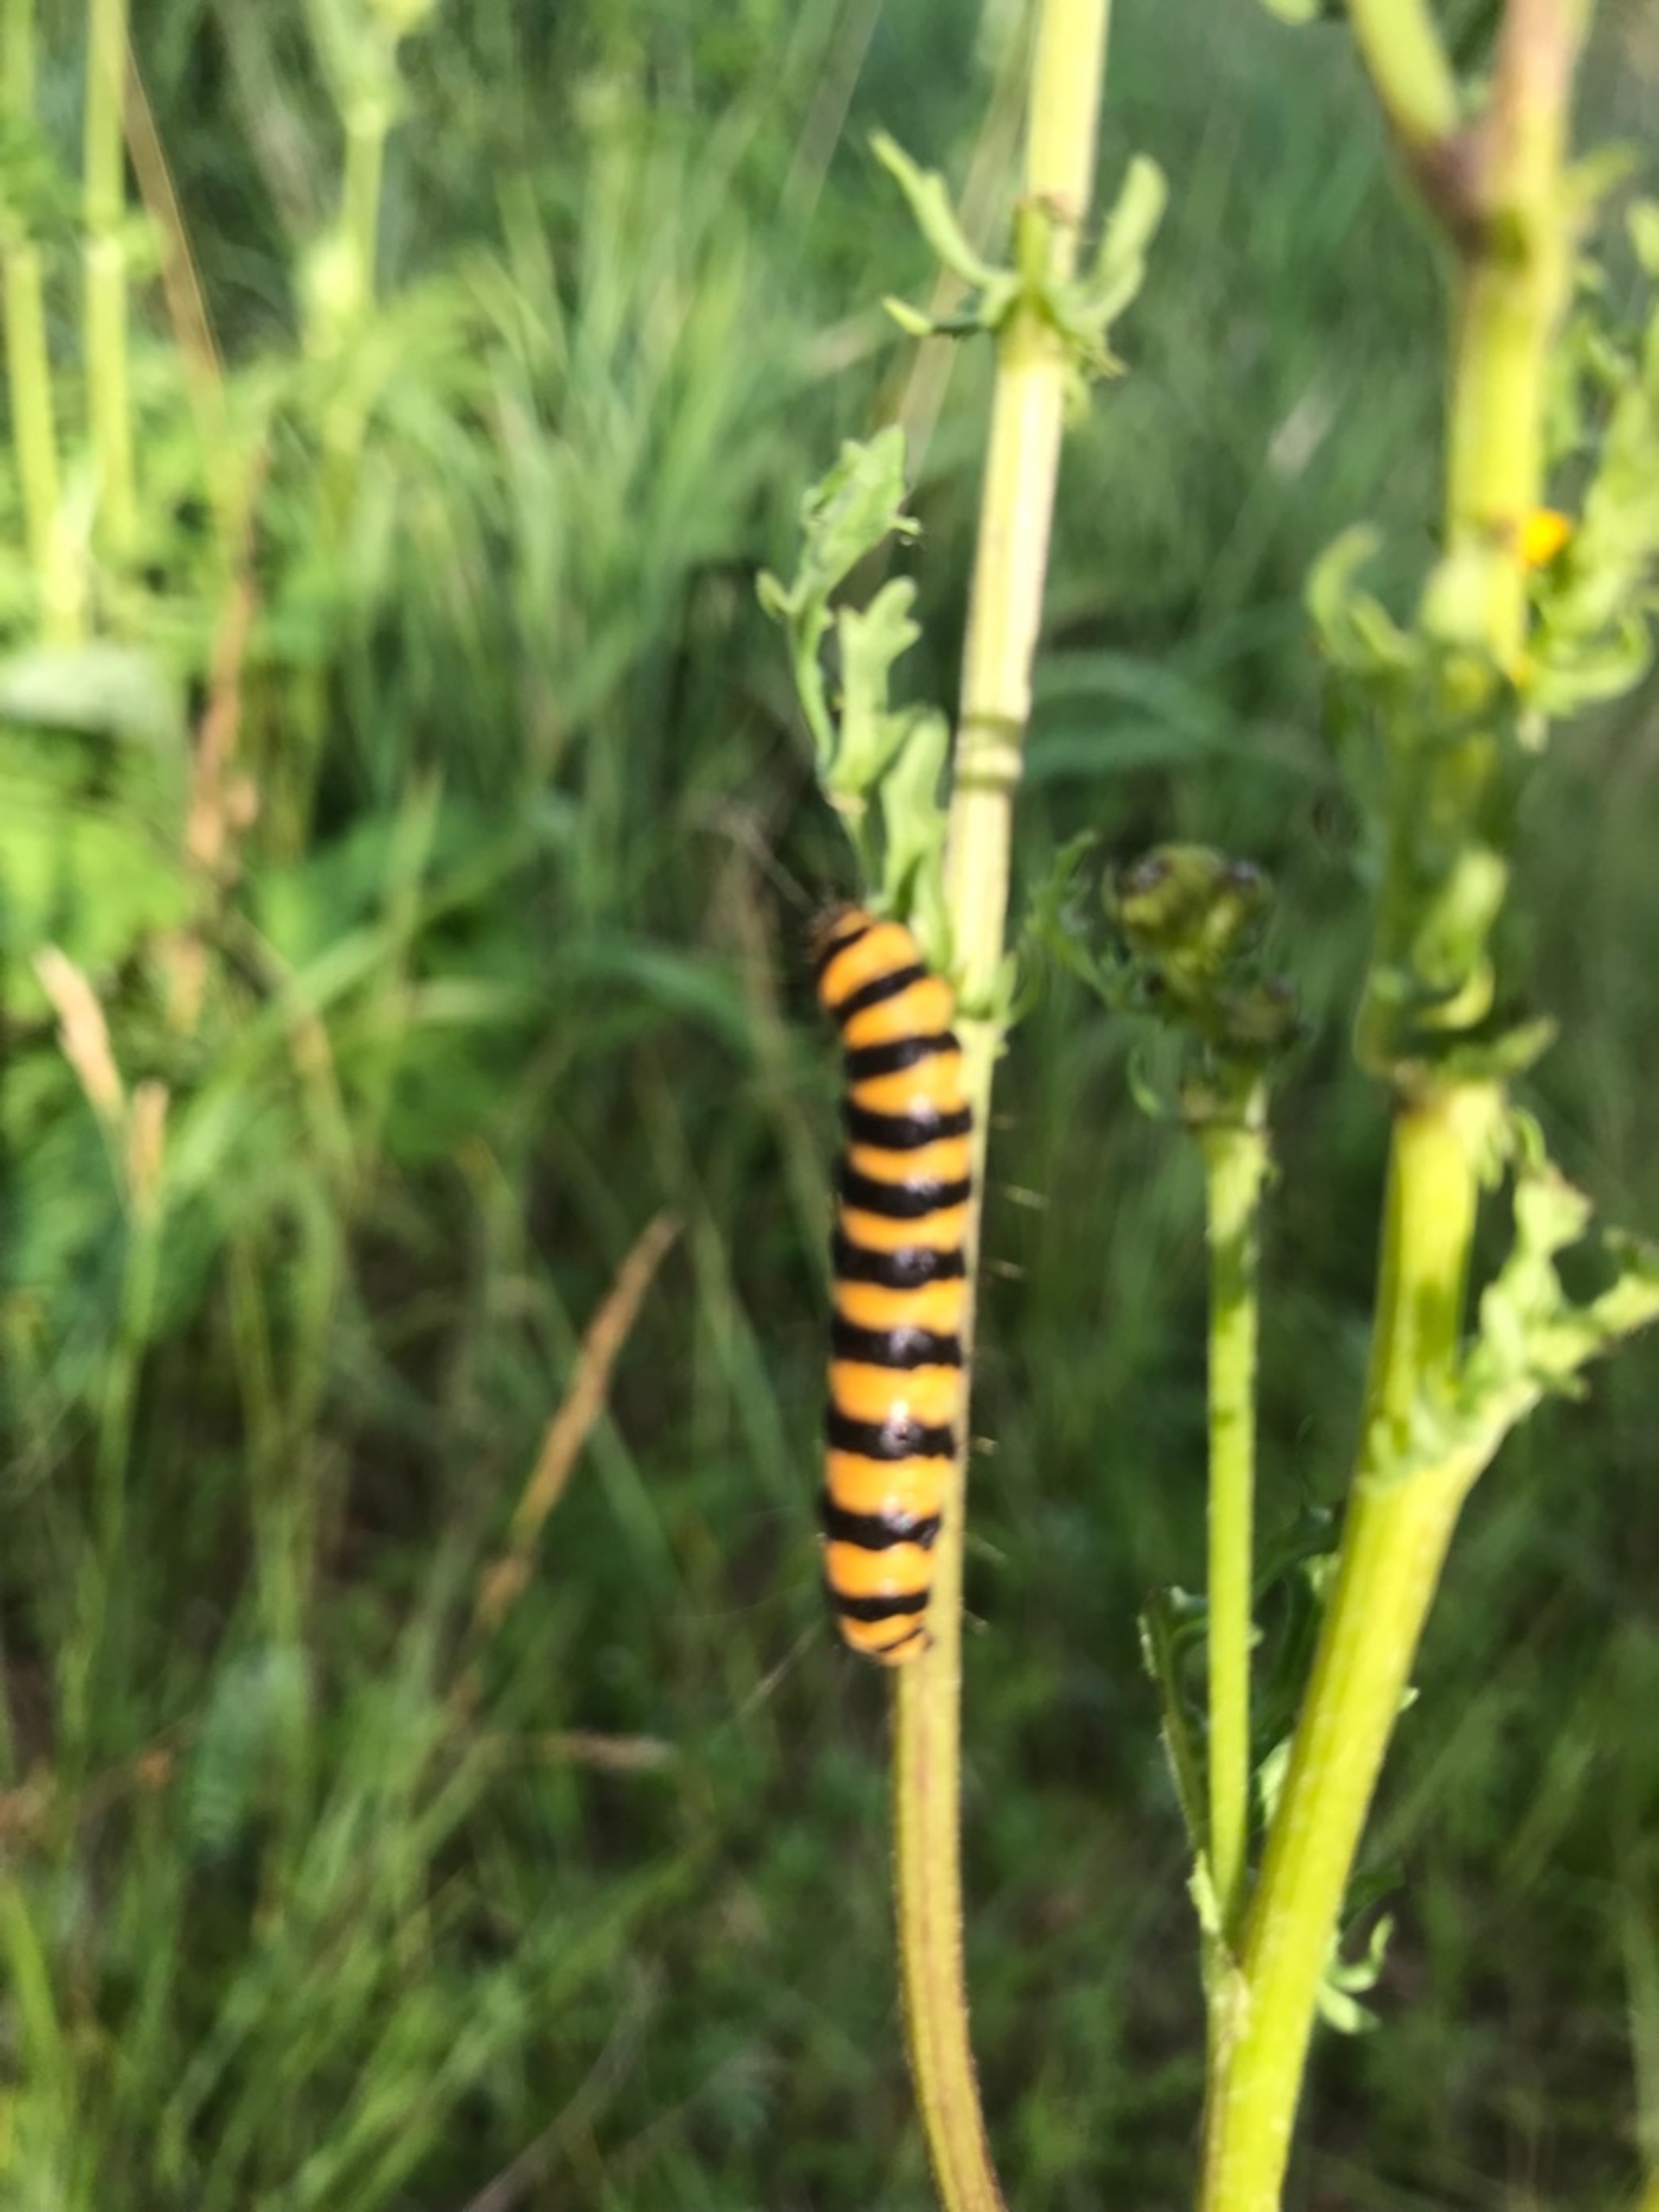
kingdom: Animalia
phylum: Arthropoda
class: Insecta
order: Lepidoptera
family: Erebidae
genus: Tyria
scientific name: Tyria jacobaeae
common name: Blodplet
